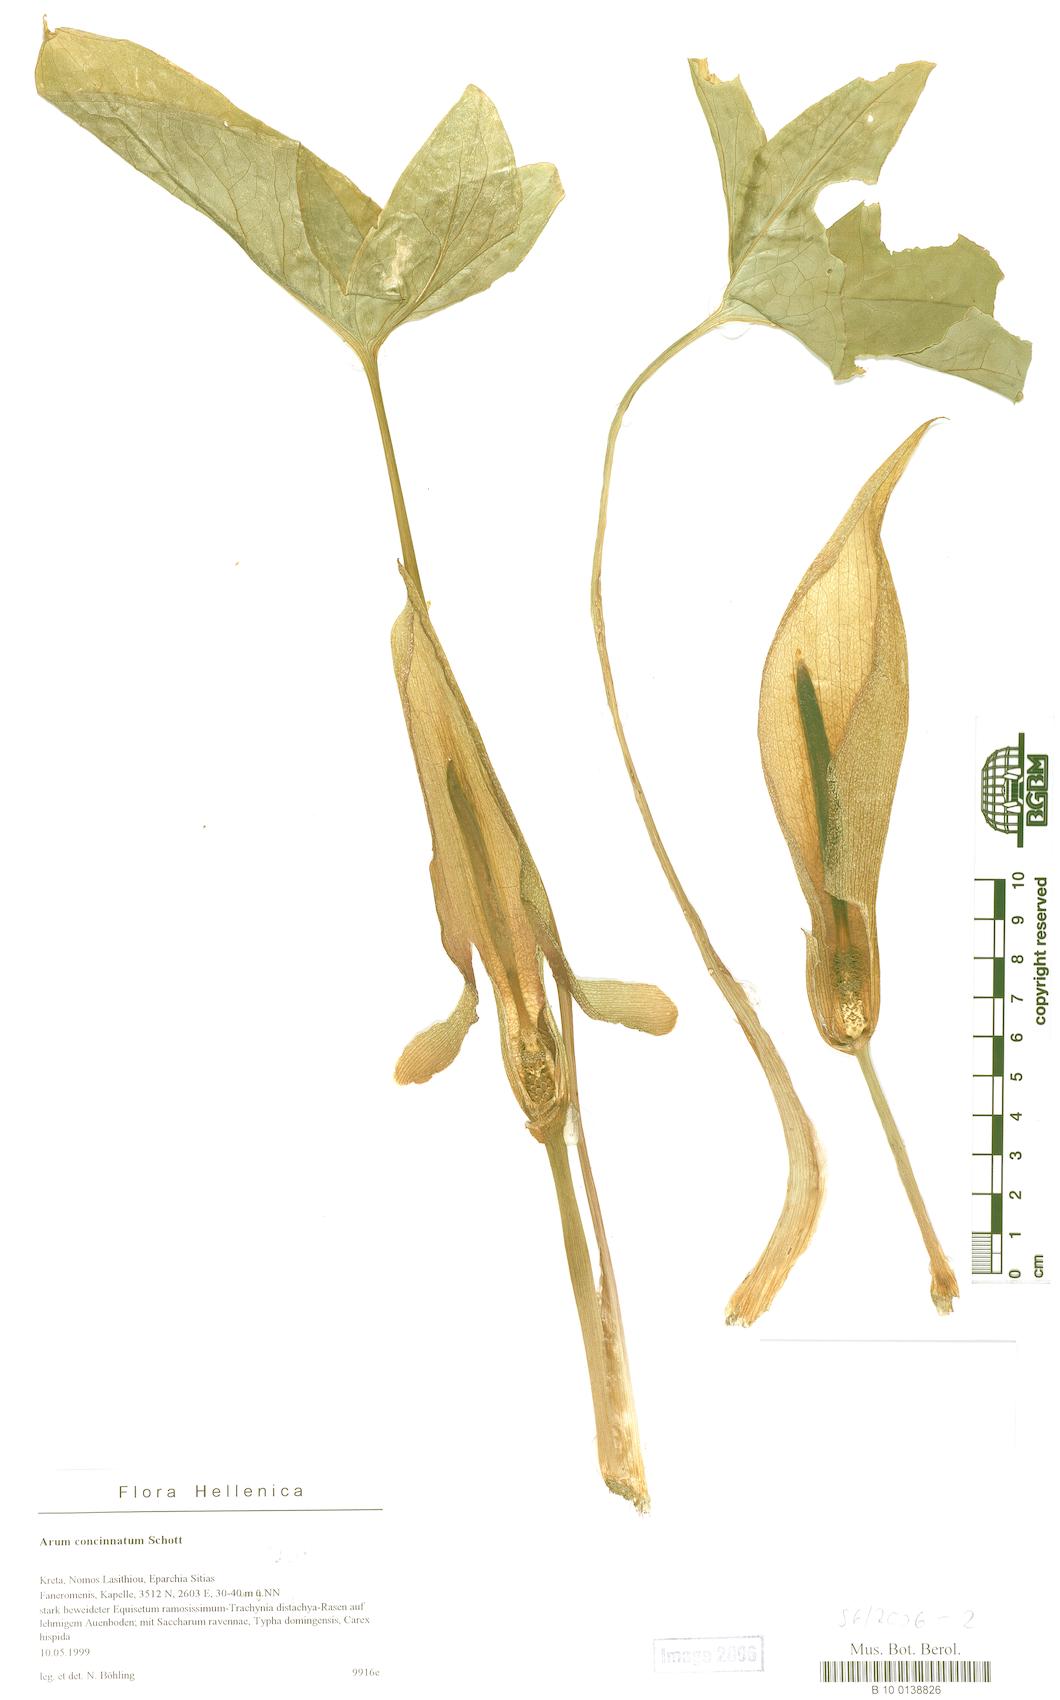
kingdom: Plantae
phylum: Tracheophyta
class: Liliopsida
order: Alismatales
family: Araceae
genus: Arum
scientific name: Arum concinnatum
